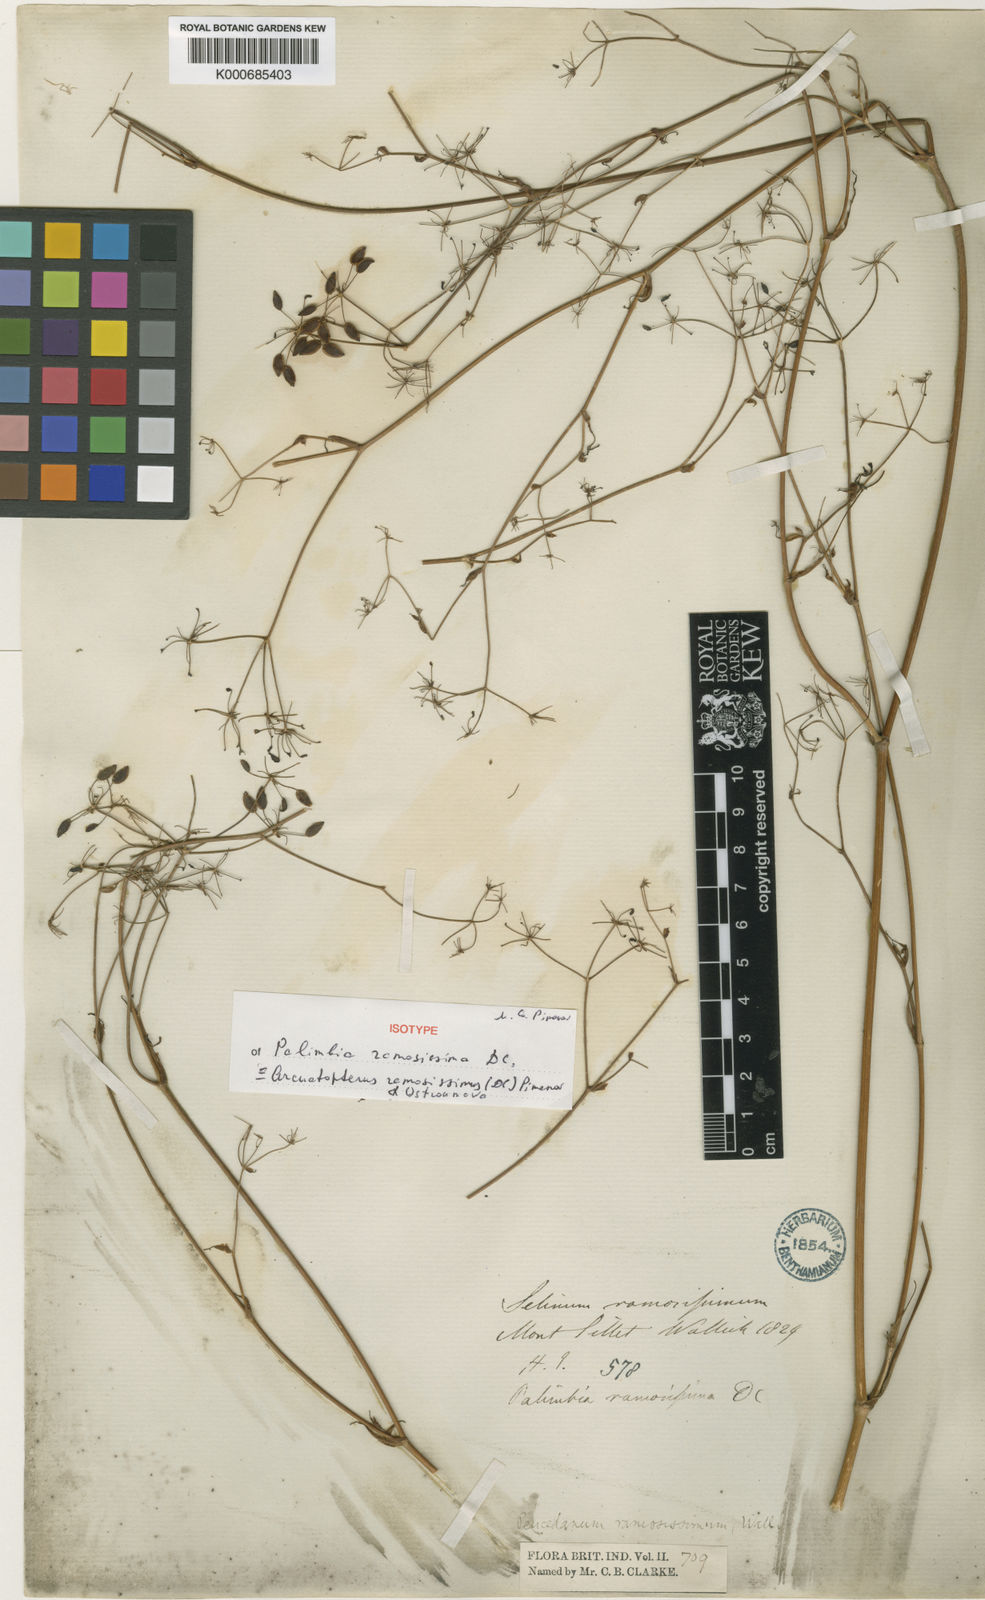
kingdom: Plantae
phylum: Tracheophyta
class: Magnoliopsida
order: Apiales
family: Apiaceae
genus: Peucedanum
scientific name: Peucedanum
